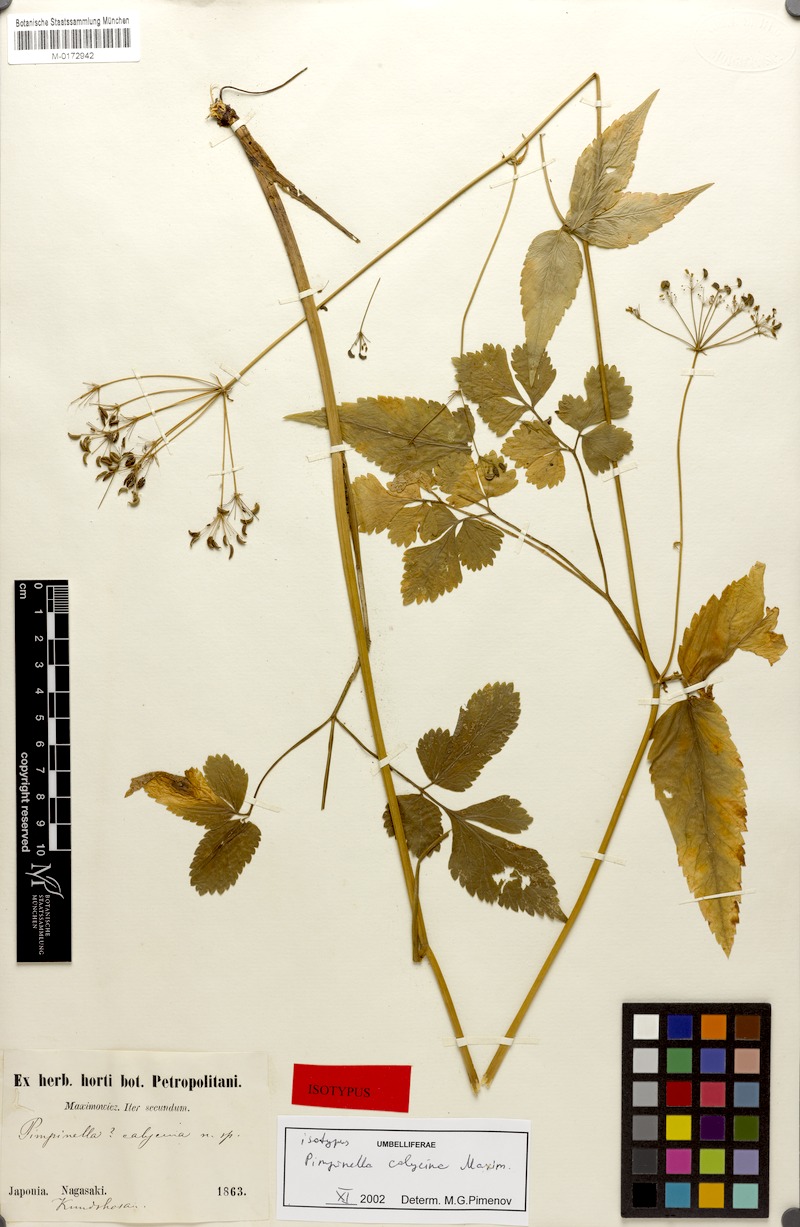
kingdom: Plantae
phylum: Tracheophyta
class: Magnoliopsida
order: Apiales
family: Apiaceae
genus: Spuriopimpinella
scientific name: Spuriopimpinella calycina
